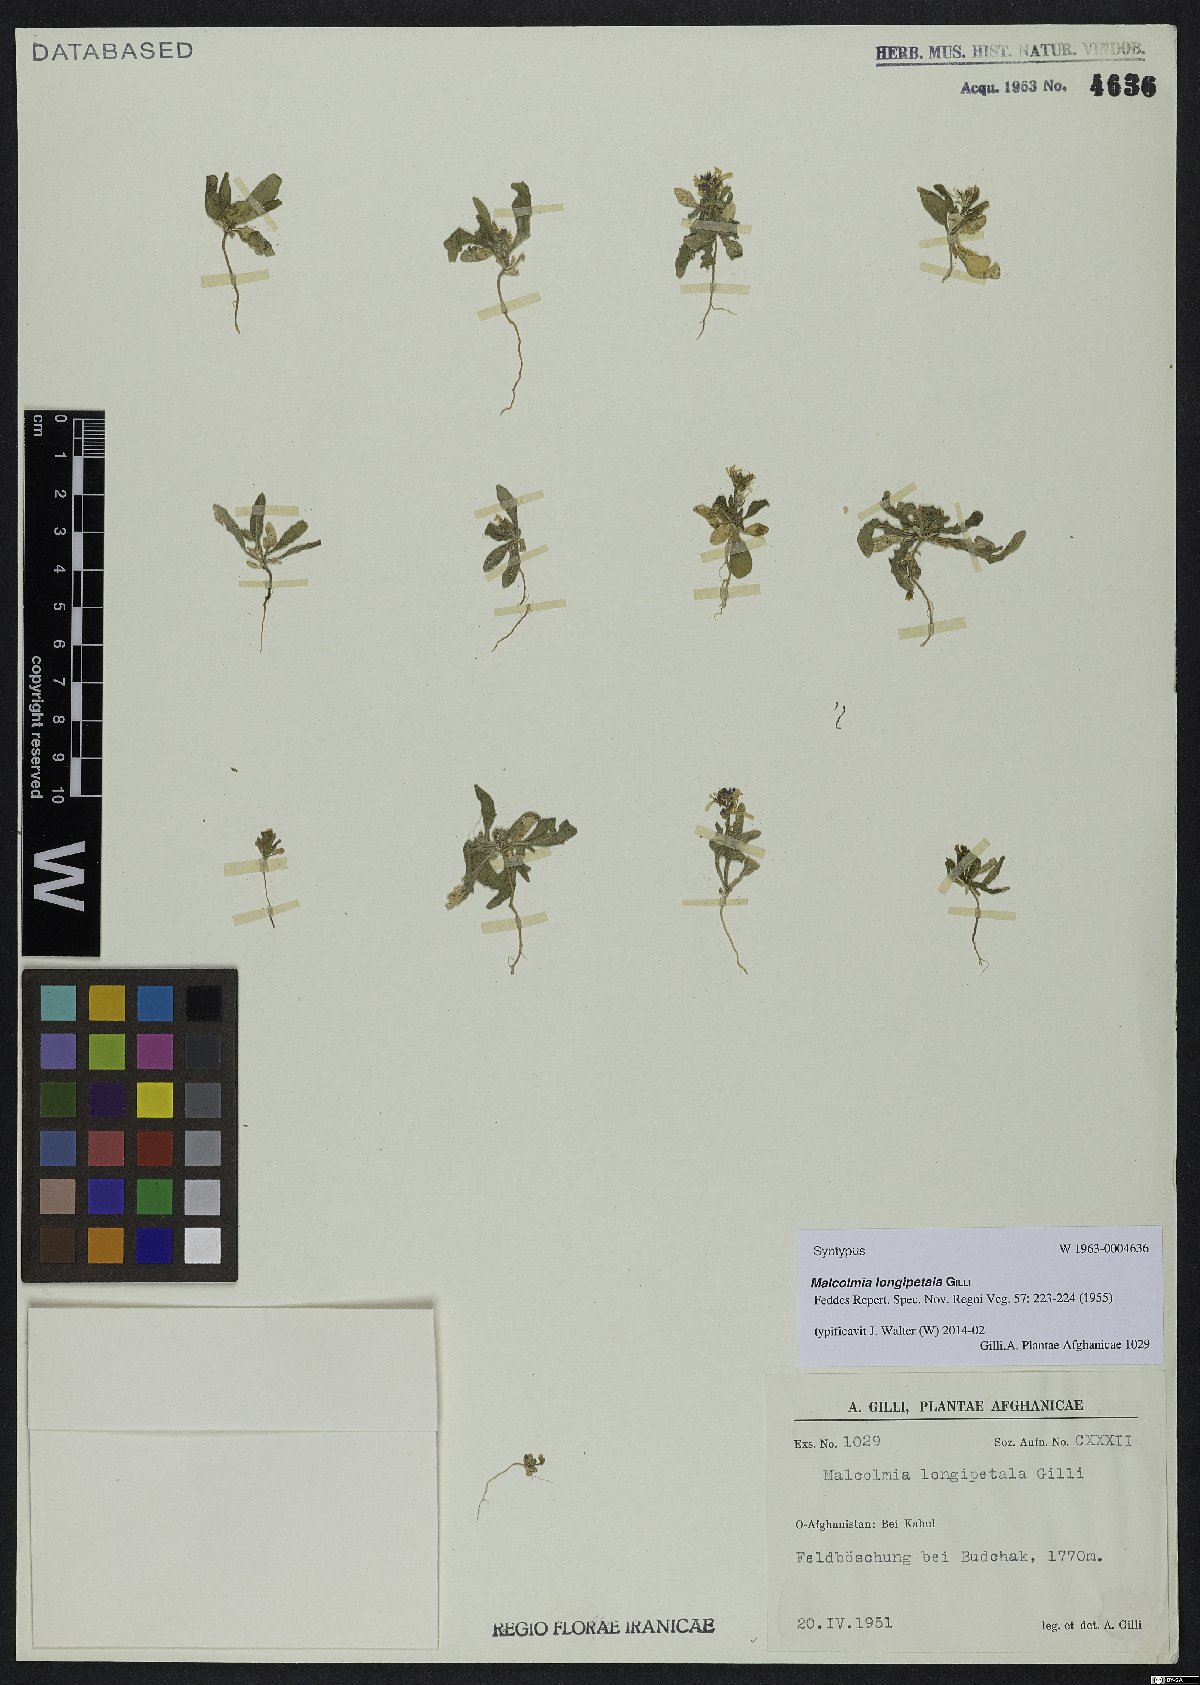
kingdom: Plantae
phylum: Tracheophyta
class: Magnoliopsida
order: Brassicales
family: Brassicaceae
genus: Strigosella
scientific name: Strigosella longipetala
